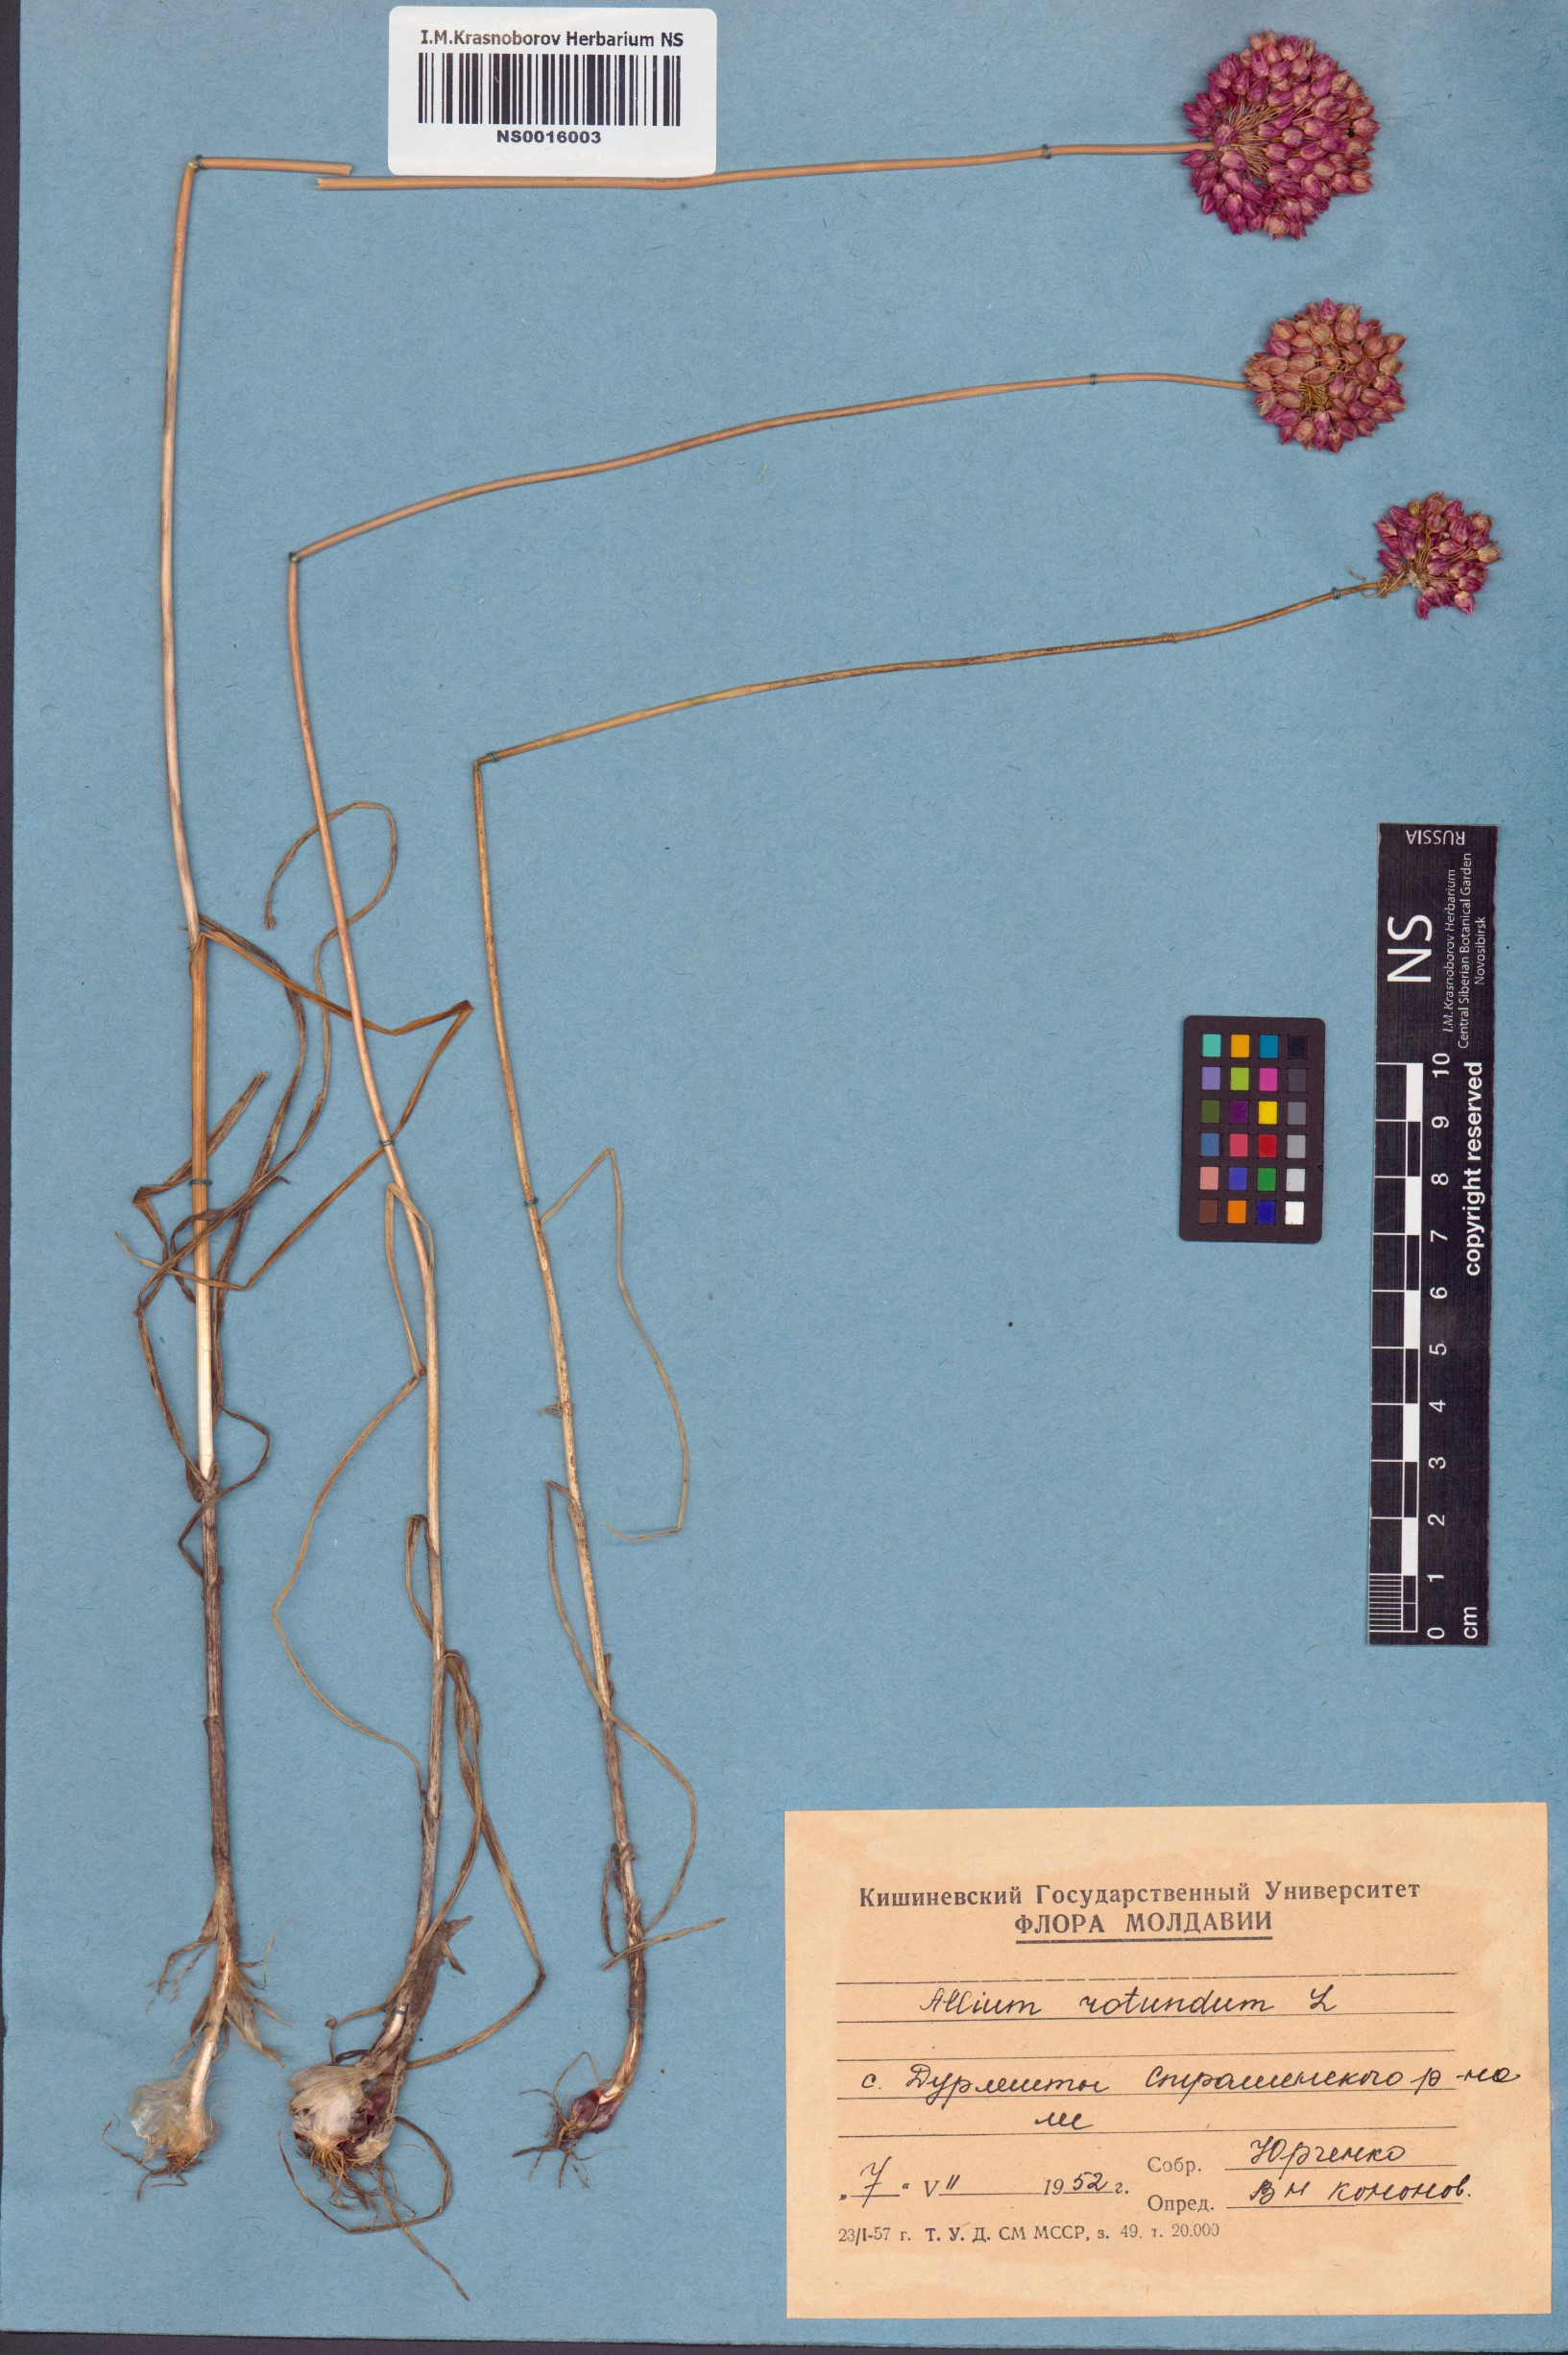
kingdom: Plantae
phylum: Tracheophyta
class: Liliopsida
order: Asparagales
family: Amaryllidaceae
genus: Allium
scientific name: Allium rotundum
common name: Sand leek
